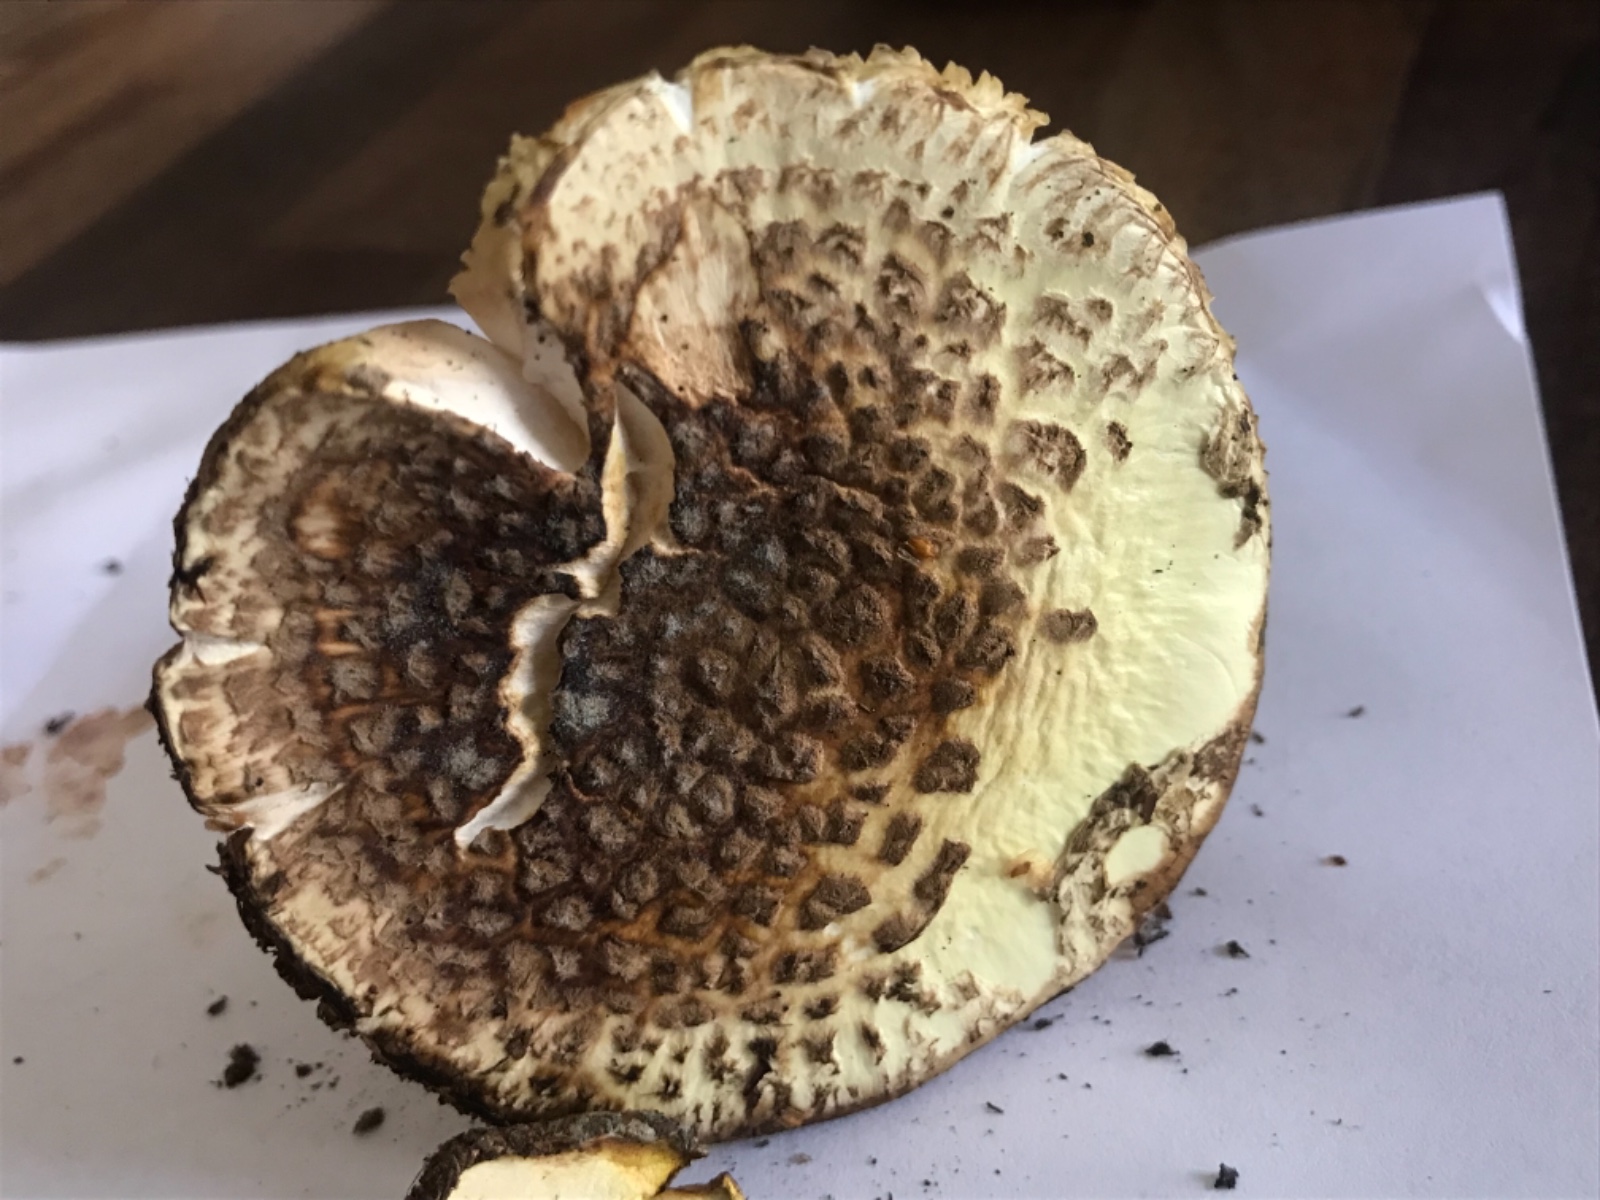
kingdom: Fungi
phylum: Basidiomycota
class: Agaricomycetes
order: Agaricales
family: Amanitaceae
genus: Amanita
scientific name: Amanita citrina
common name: kugleknoldet fluesvamp
